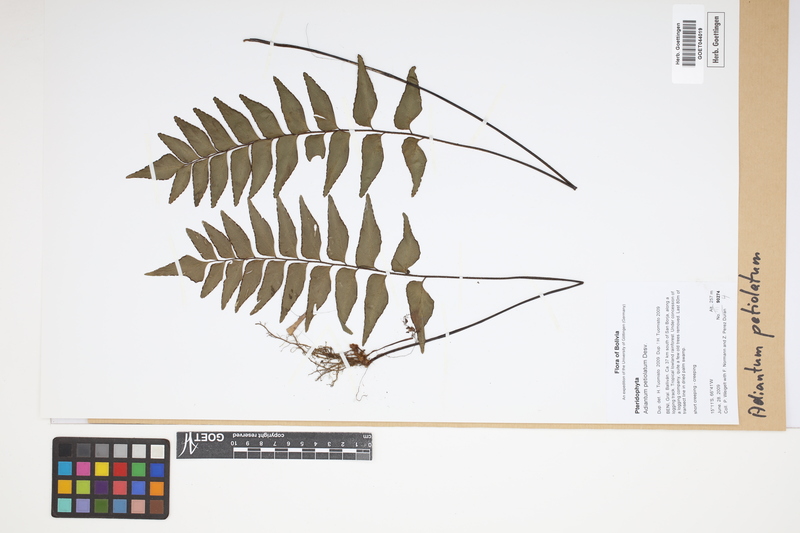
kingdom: Plantae
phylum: Tracheophyta
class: Polypodiopsida
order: Polypodiales
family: Pteridaceae
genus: Adiantum
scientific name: Adiantum petiolatum
